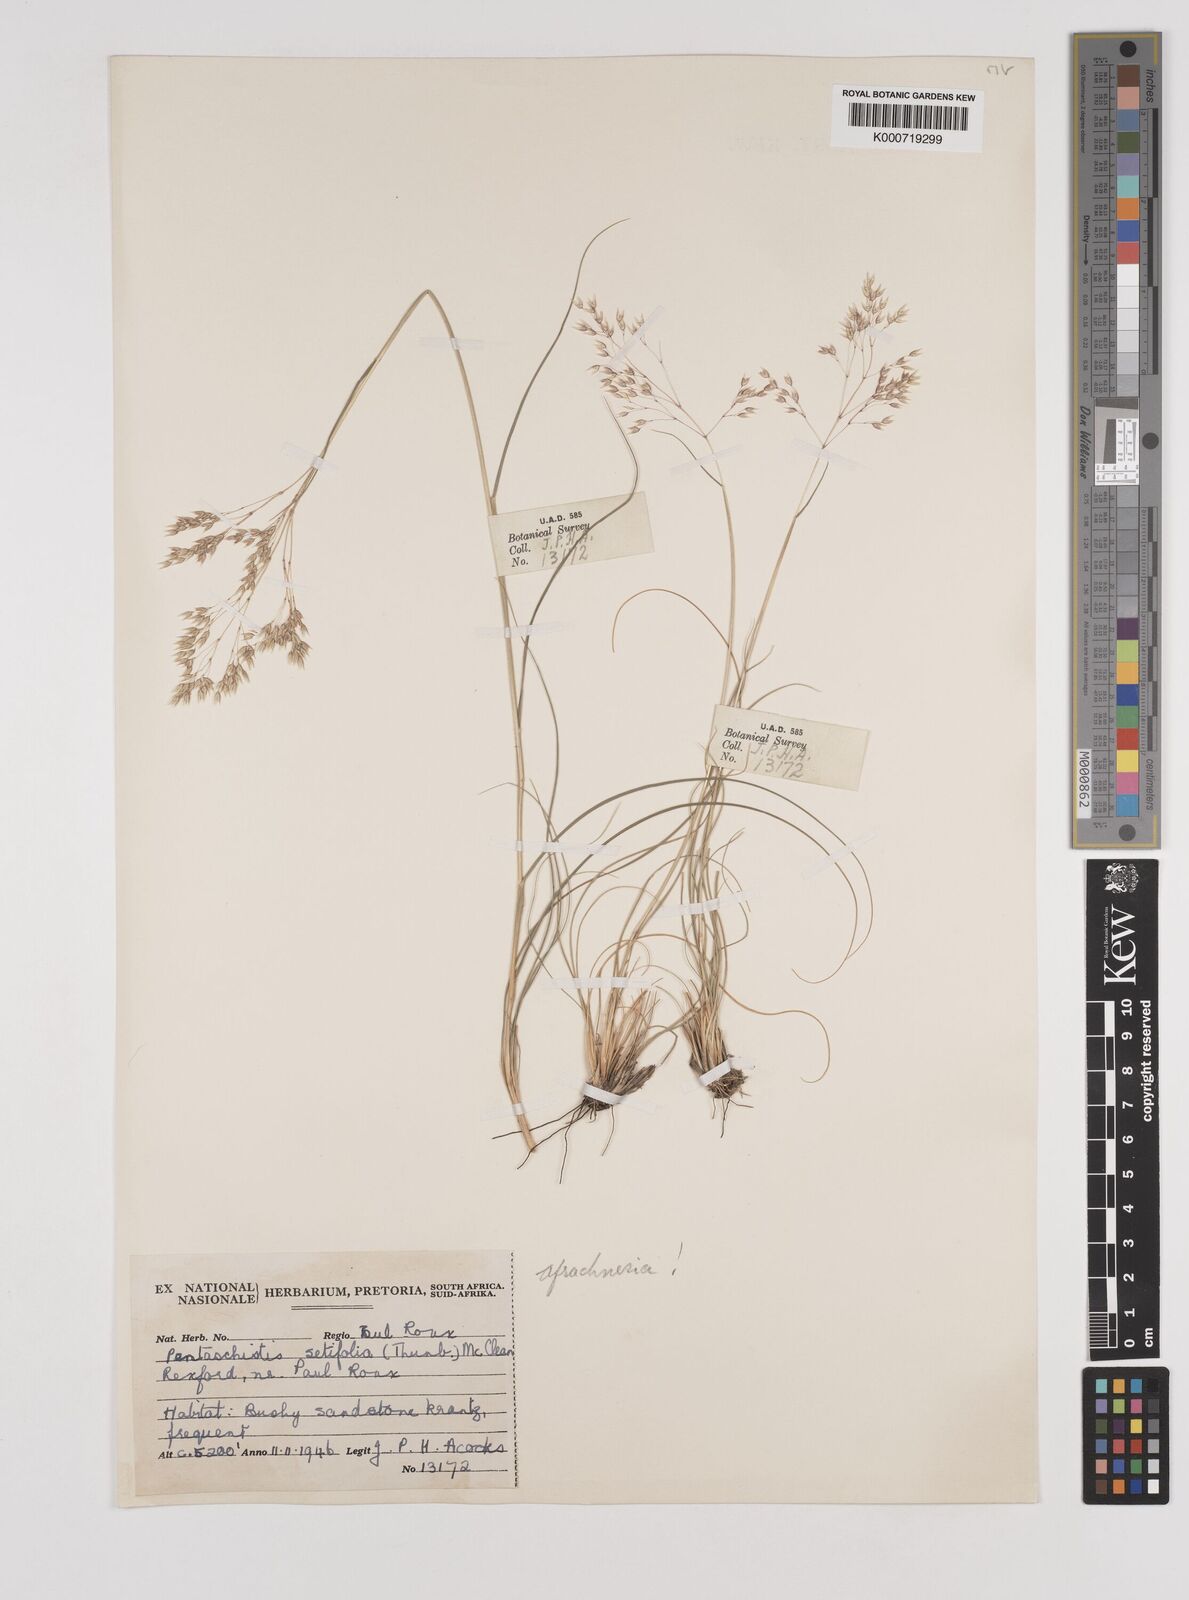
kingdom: Plantae
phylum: Tracheophyta
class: Liliopsida
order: Poales
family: Poaceae
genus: Pentameris
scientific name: Pentameris setifolia
